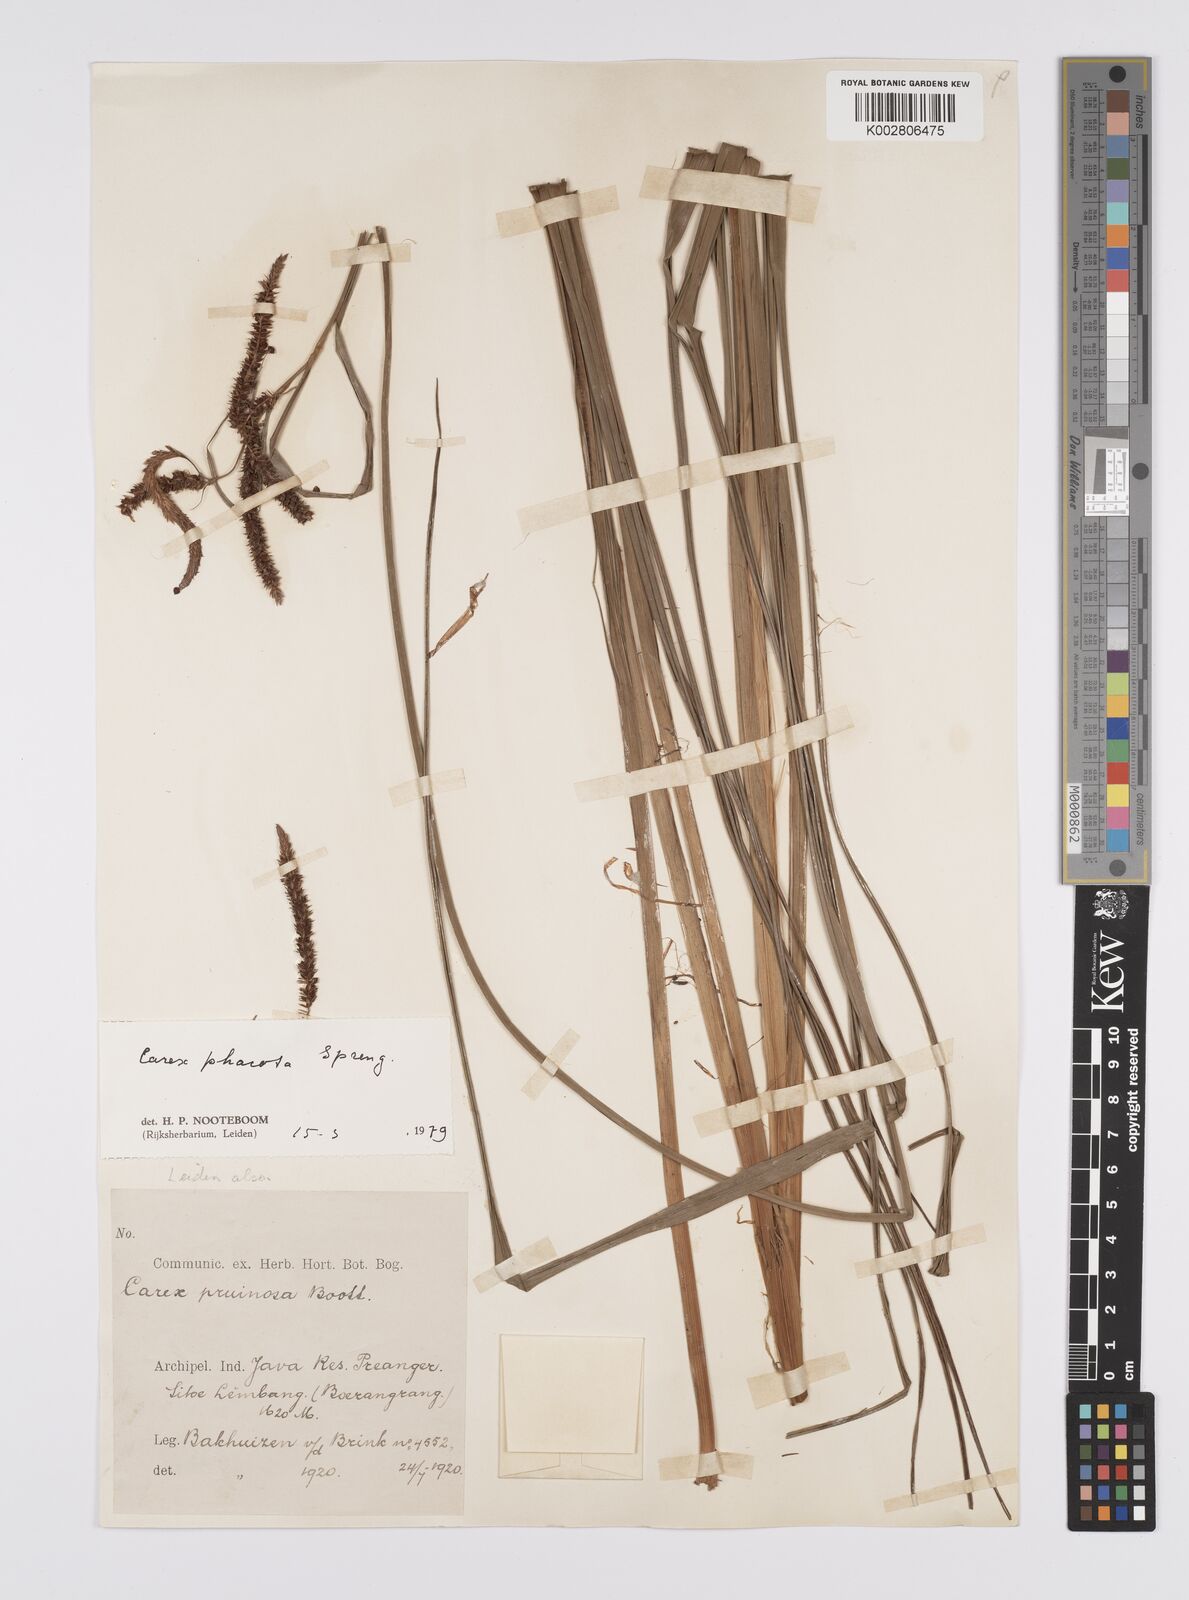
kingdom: Plantae
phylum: Tracheophyta
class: Liliopsida
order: Poales
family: Cyperaceae
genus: Carex
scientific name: Carex phacota
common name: Lakeshore sedge
